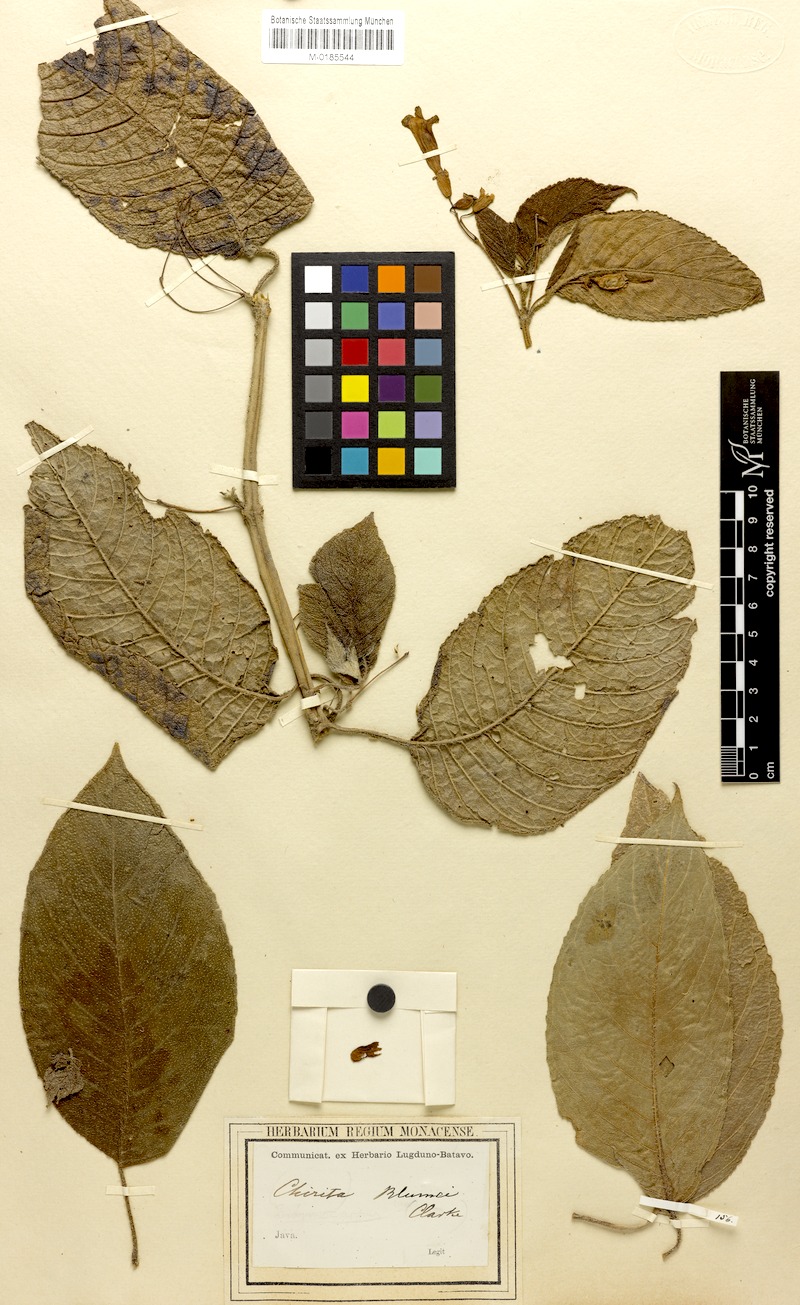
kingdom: Plantae
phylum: Tracheophyta
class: Magnoliopsida
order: Lamiales
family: Gesneriaceae
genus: Liebigia
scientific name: Liebigia barbata
